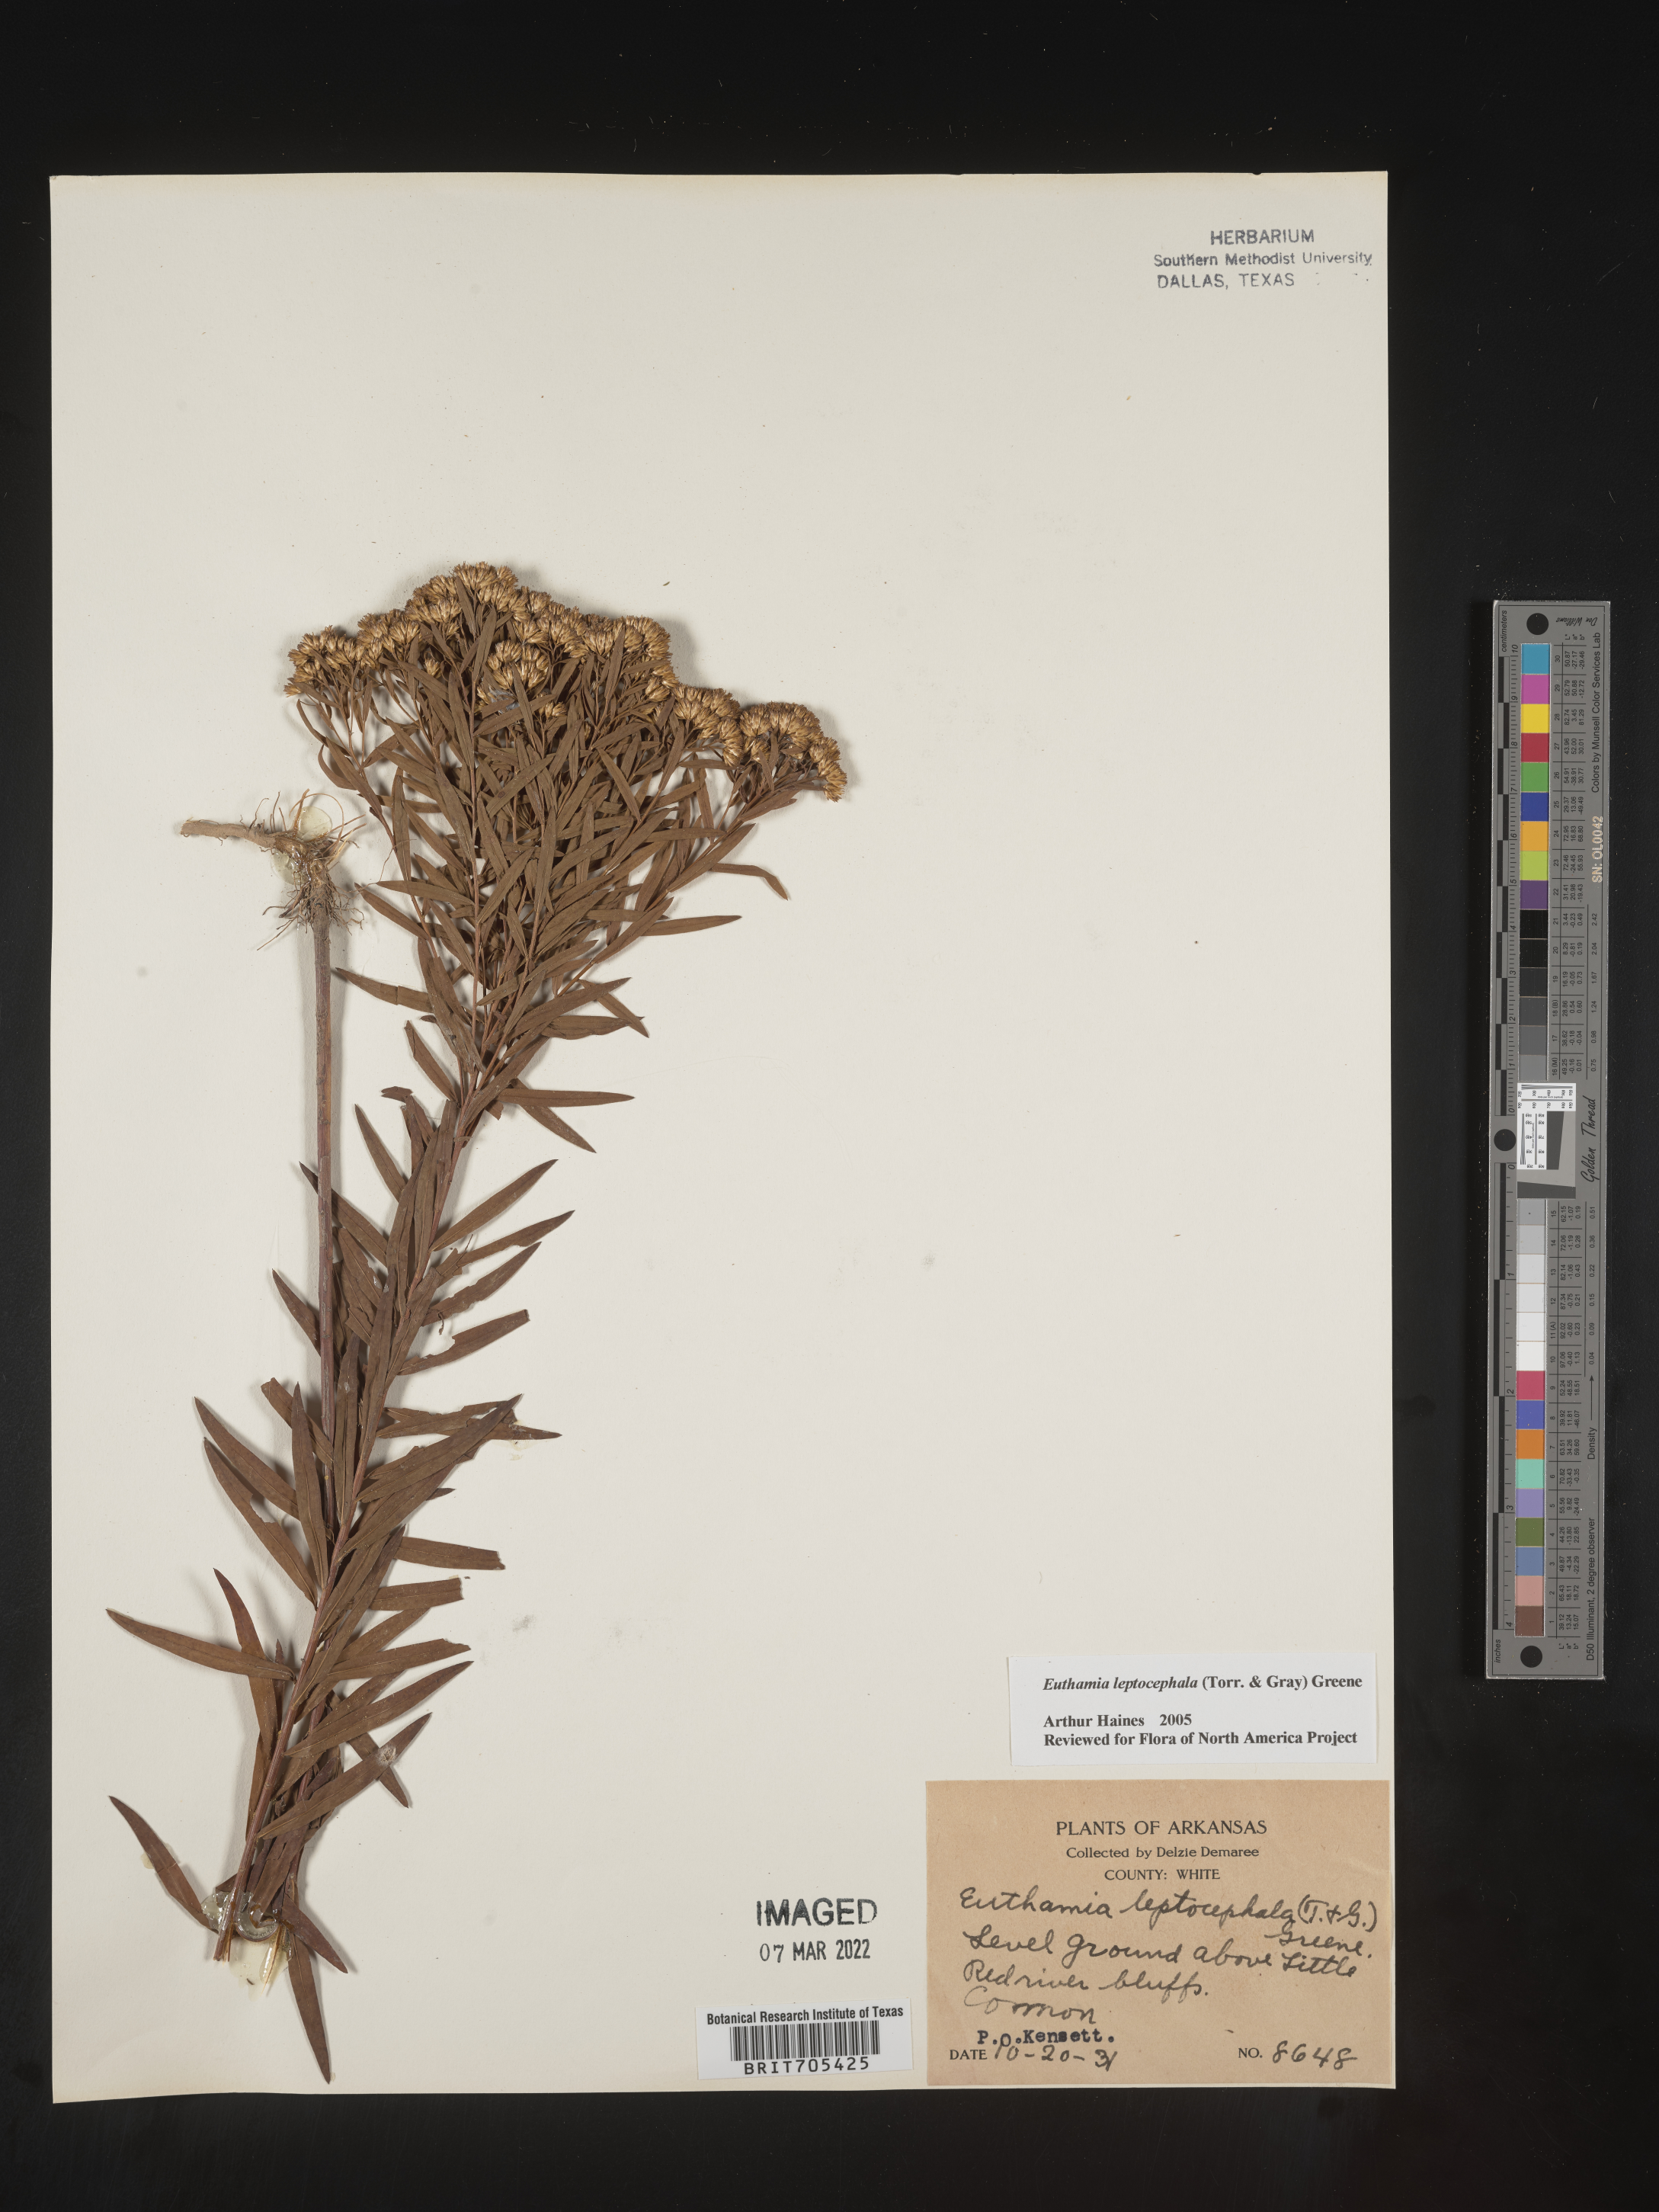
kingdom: Plantae
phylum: Tracheophyta
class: Magnoliopsida
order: Asterales
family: Asteraceae
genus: Euthamia
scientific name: Euthamia leptocephala
